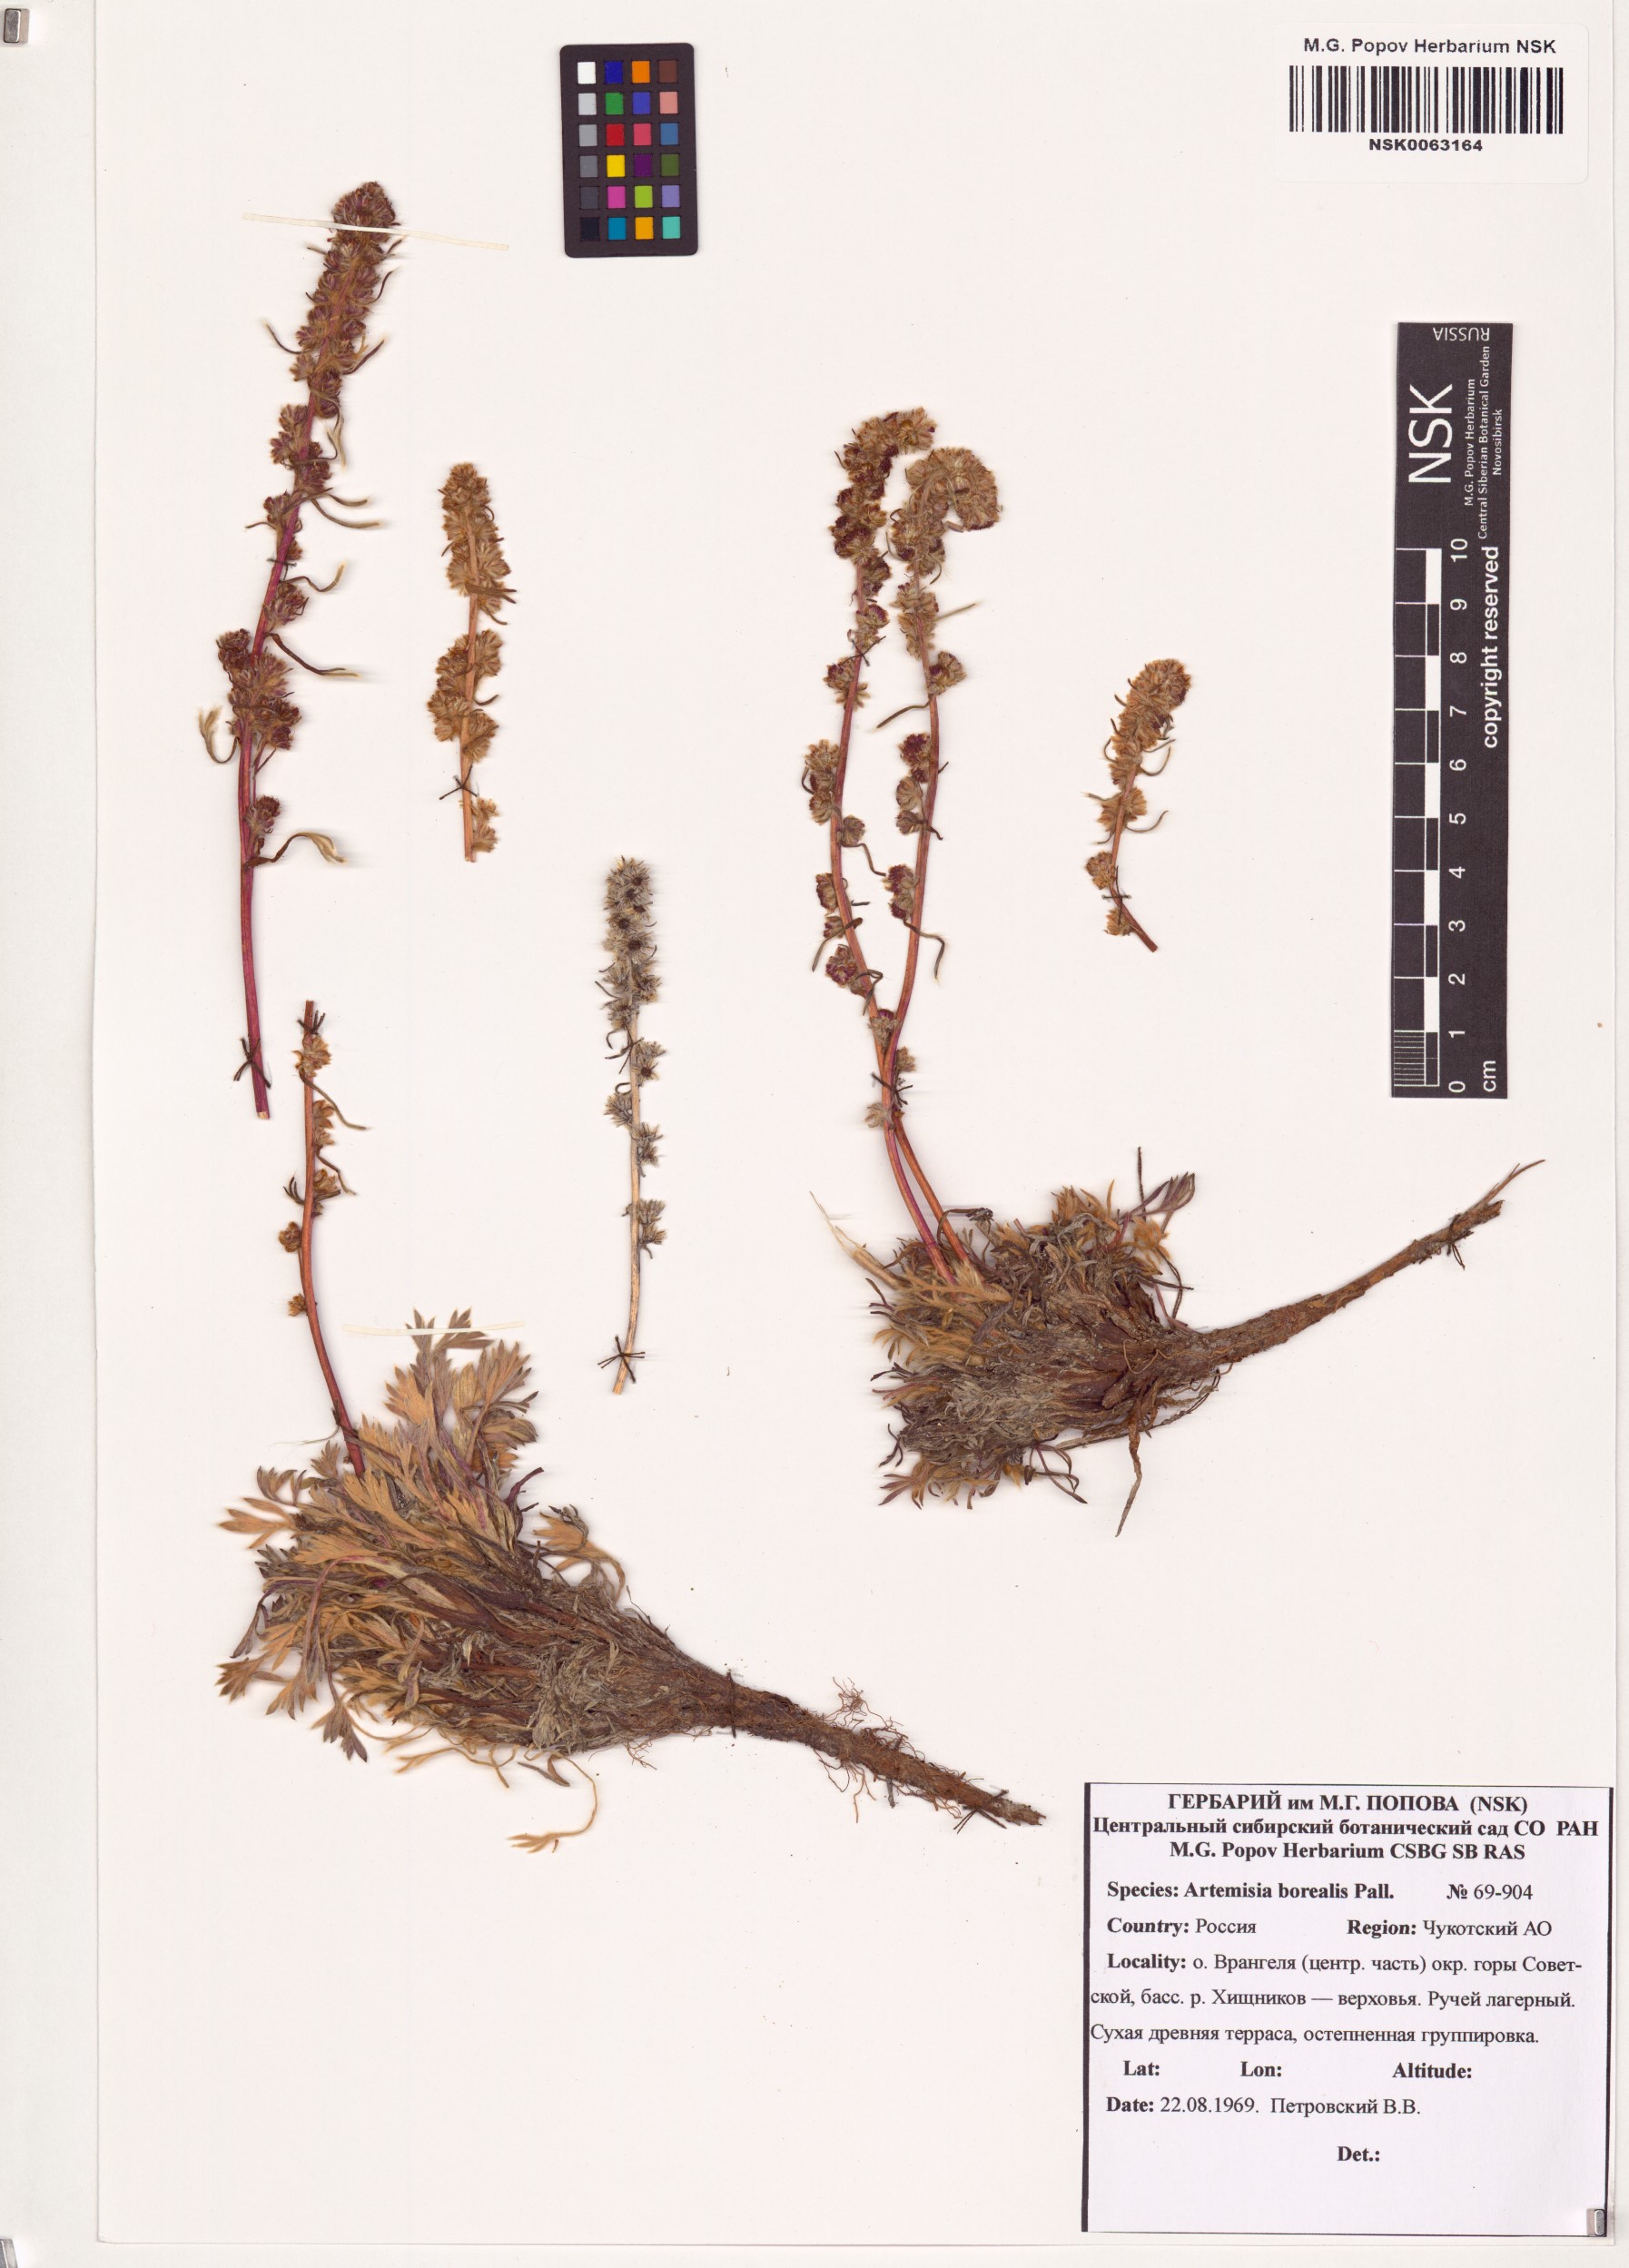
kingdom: Plantae
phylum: Tracheophyta
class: Magnoliopsida
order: Asterales
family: Asteraceae
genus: Artemisia
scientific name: Artemisia borealis
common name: Boreal sage
